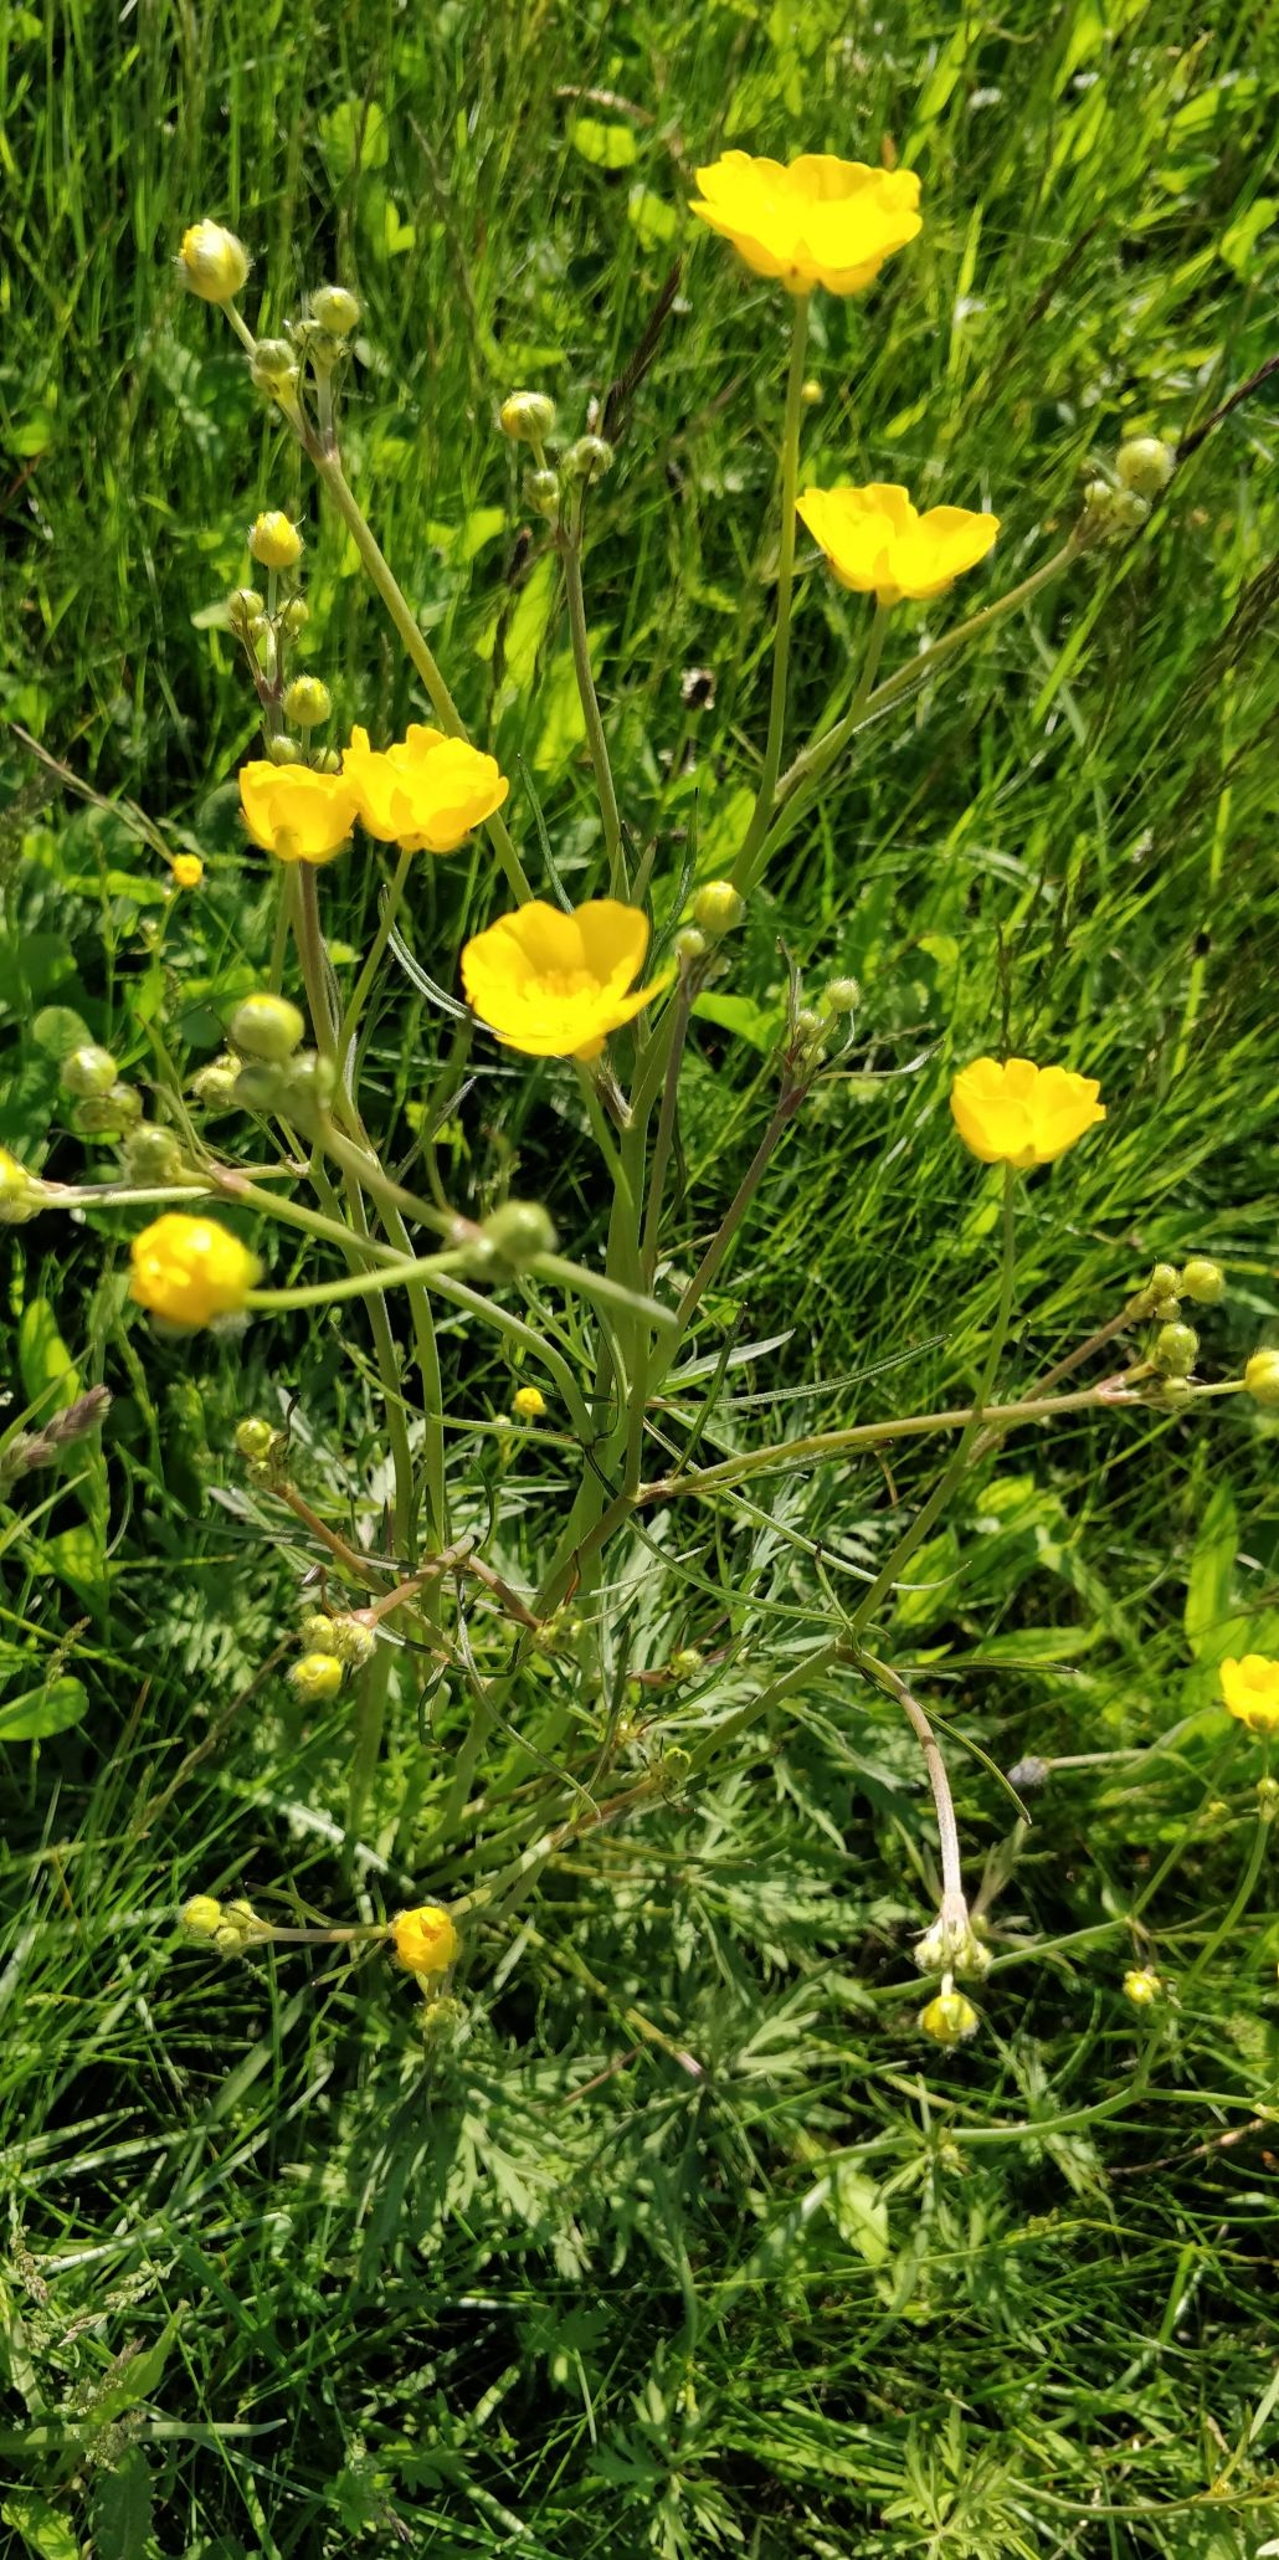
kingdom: Plantae
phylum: Tracheophyta
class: Magnoliopsida
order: Ranunculales
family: Ranunculaceae
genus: Ranunculus
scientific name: Ranunculus acris
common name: Bidende ranunkel
